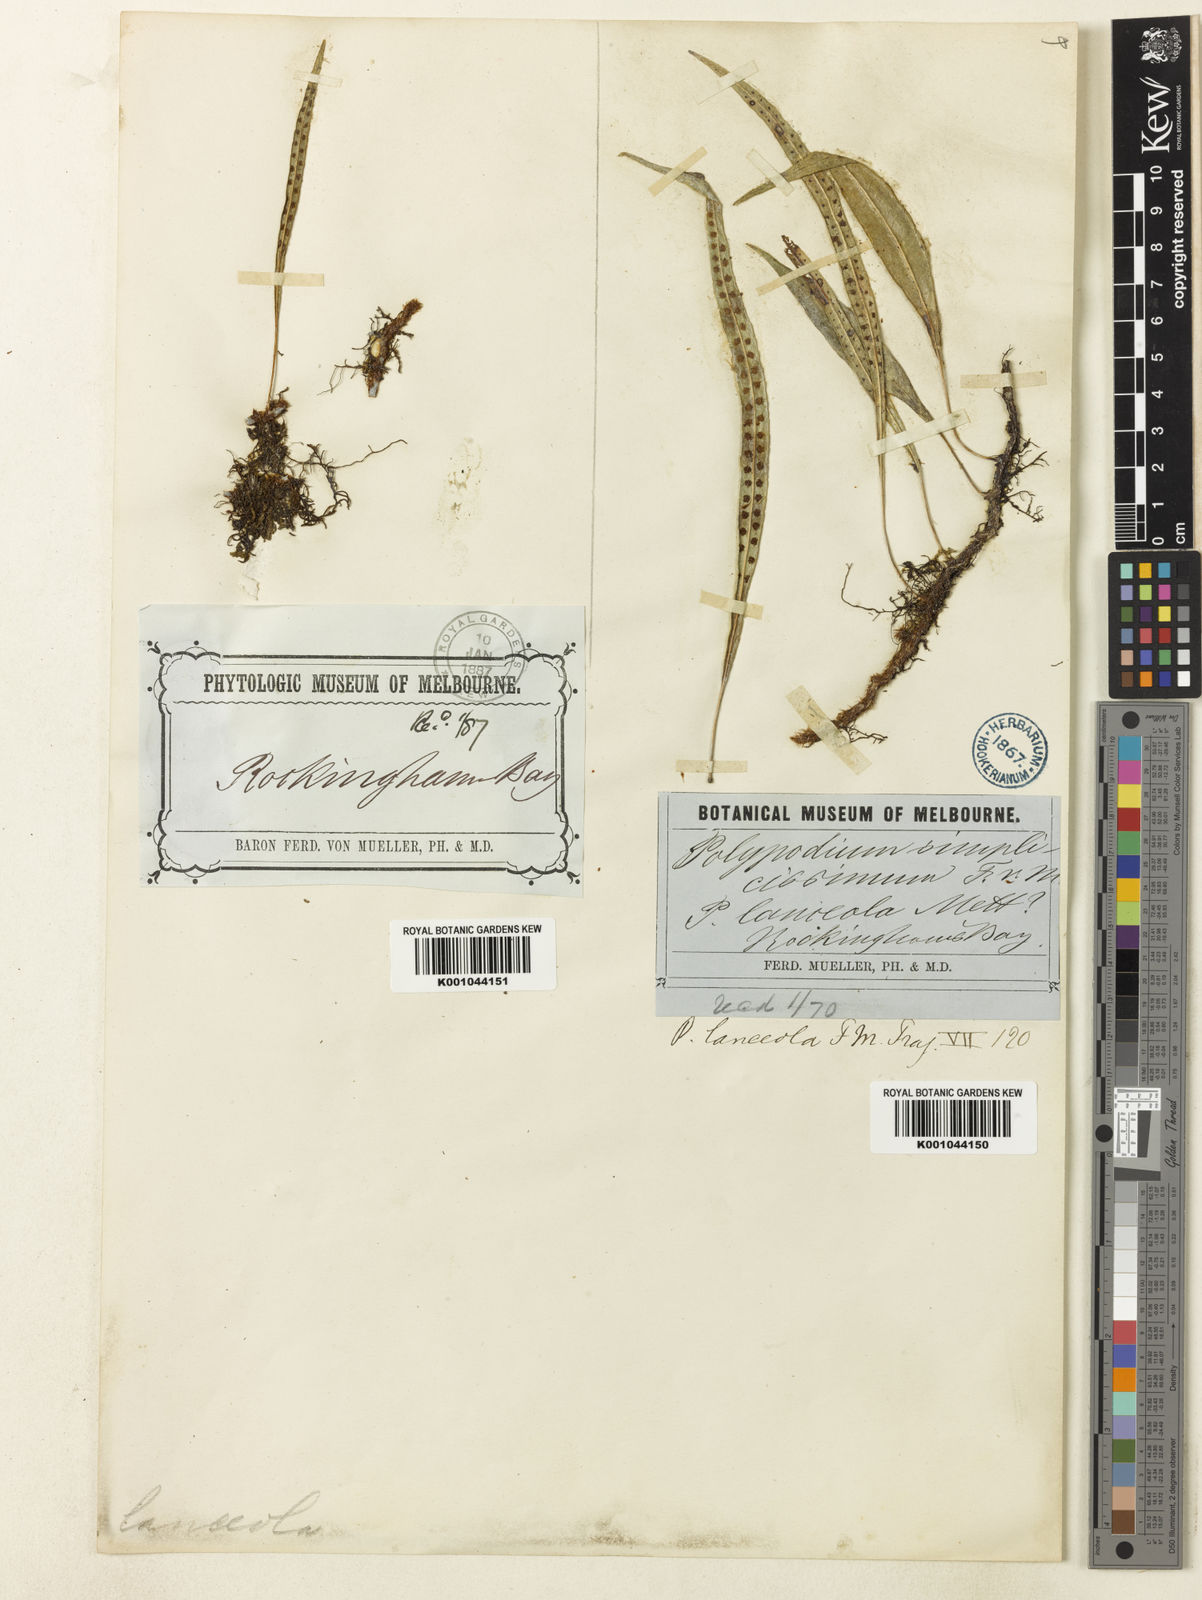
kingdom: Plantae
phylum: Tracheophyta
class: Polypodiopsida
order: Polypodiales
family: Polypodiaceae
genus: Selliguea
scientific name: Selliguea simplicissima
